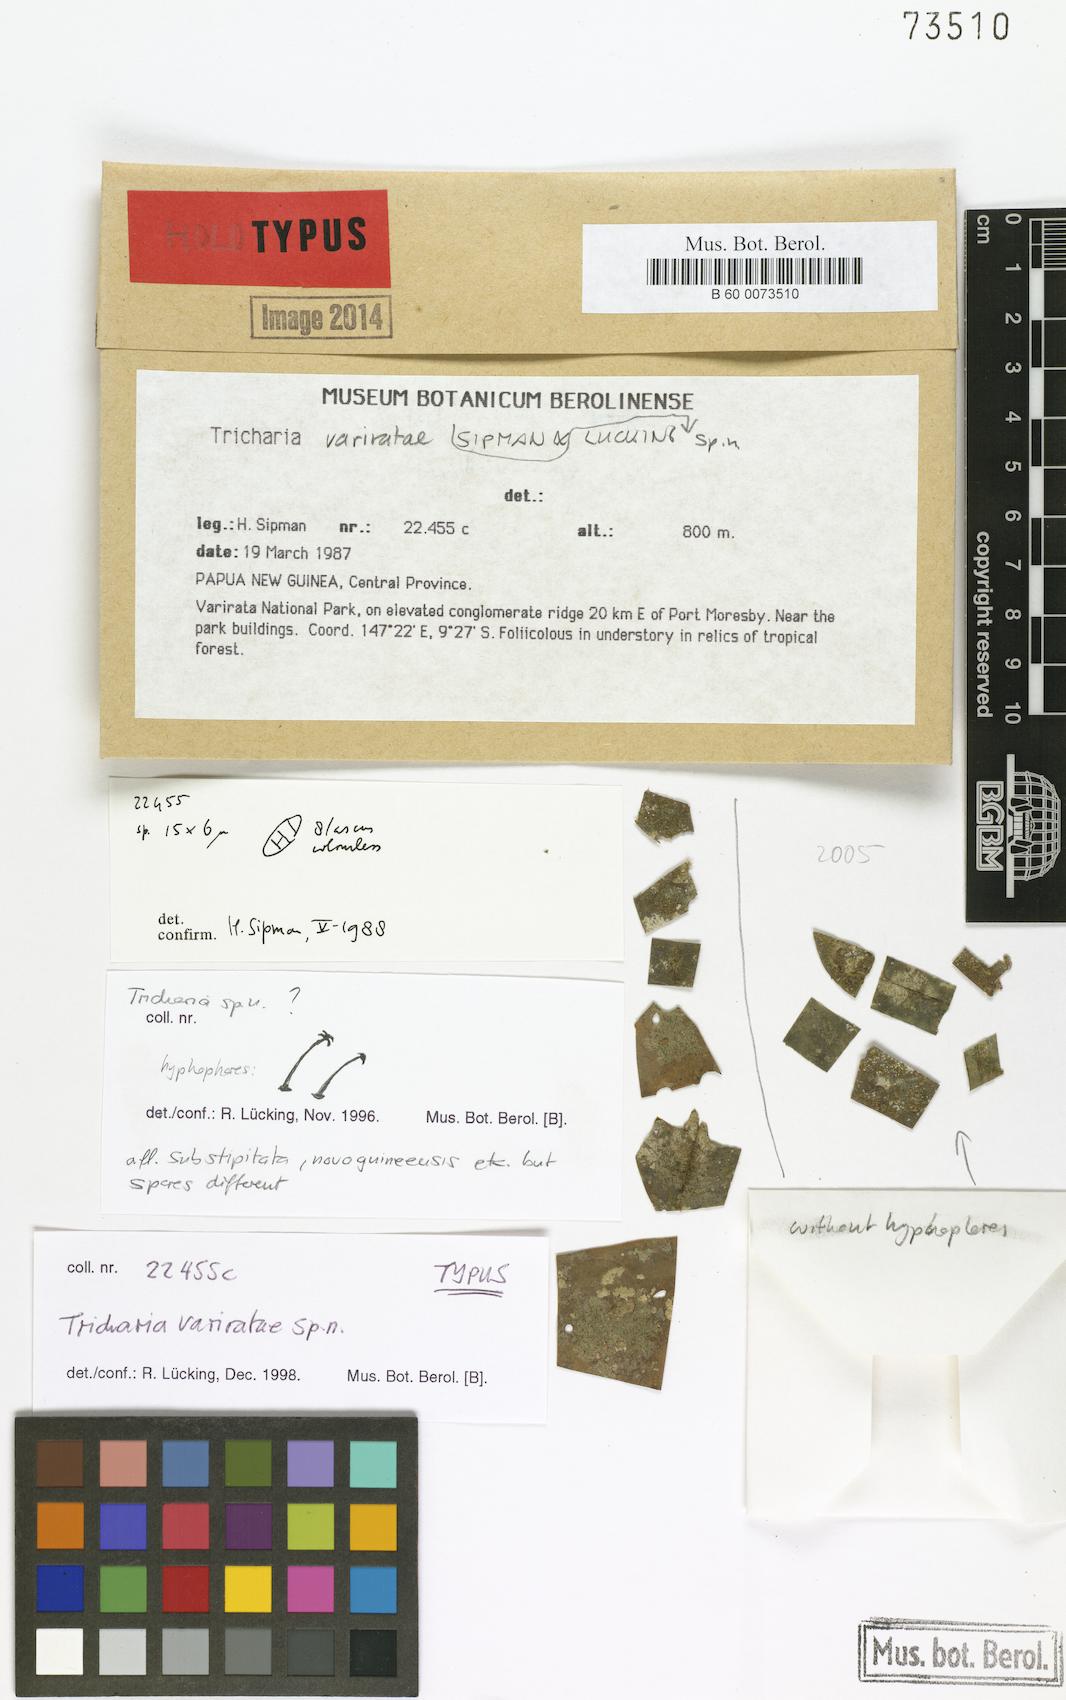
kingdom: Fungi
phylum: Ascomycota
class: Lecanoromycetes
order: Ostropales
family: Gomphillaceae
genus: Tricharia
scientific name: Tricharia variratae
